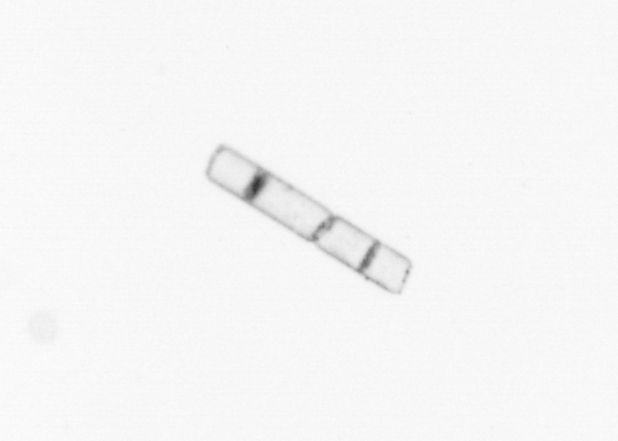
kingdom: Chromista
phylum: Ochrophyta
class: Bacillariophyceae
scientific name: Bacillariophyceae
